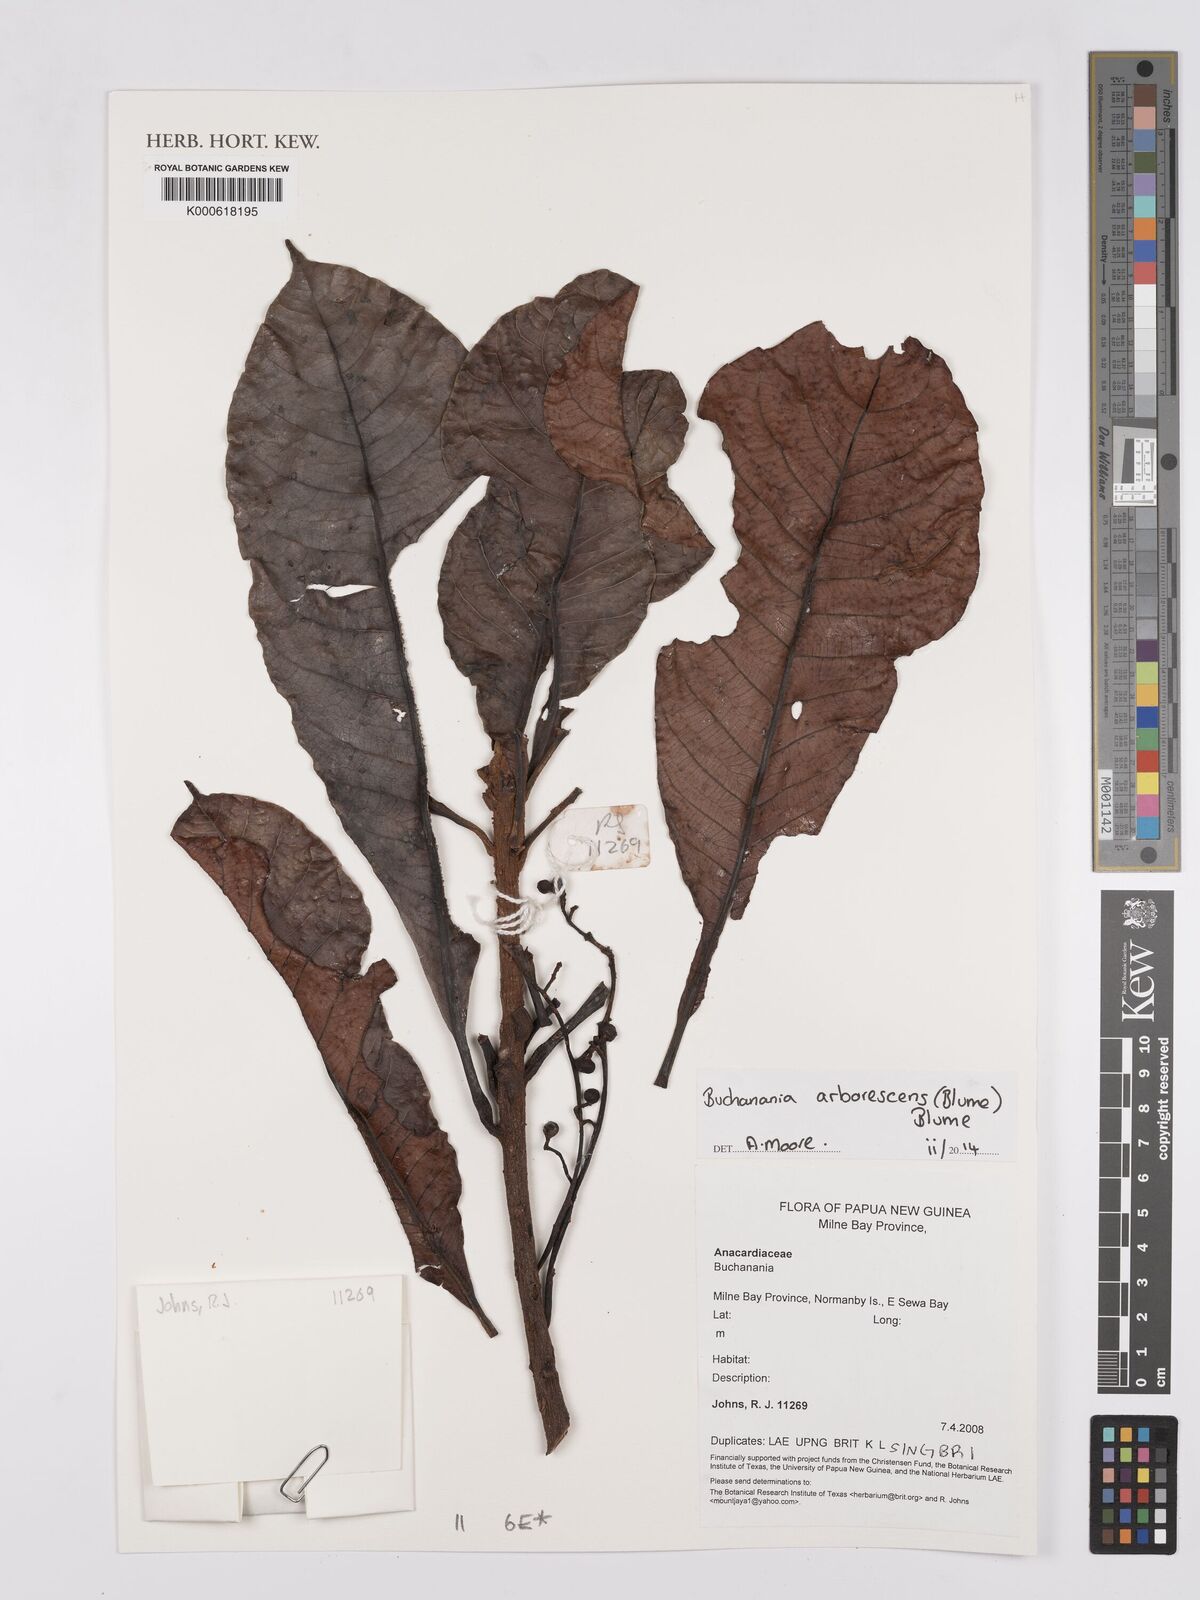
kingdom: Plantae
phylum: Tracheophyta
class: Magnoliopsida
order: Sapindales
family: Anacardiaceae
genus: Buchanania
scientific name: Buchanania arborescens
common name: Sparrow’s mango
